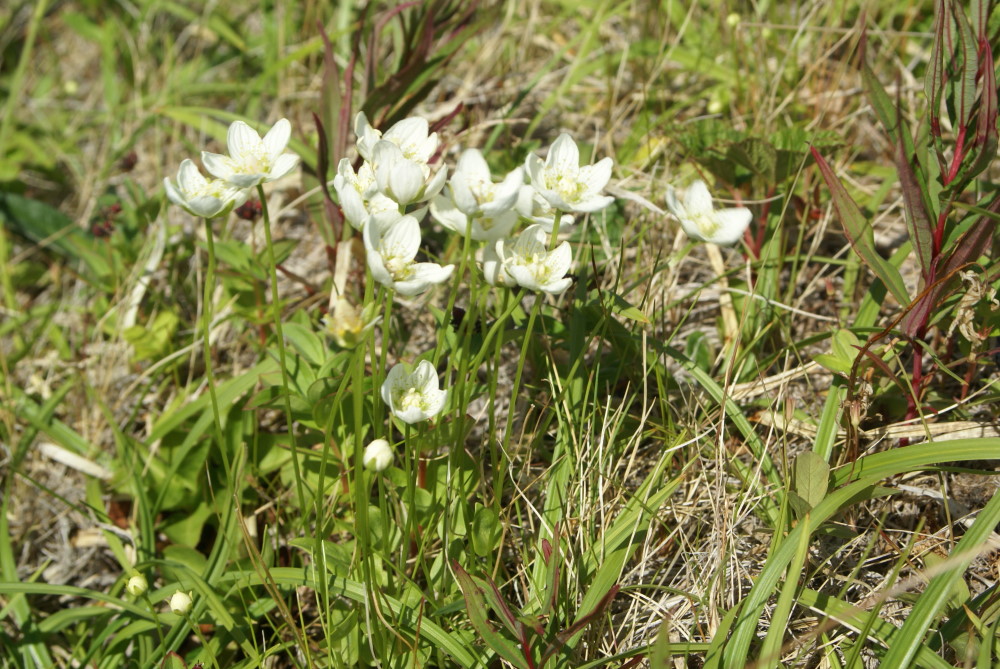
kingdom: Plantae
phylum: Tracheophyta
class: Magnoliopsida
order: Celastrales
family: Parnassiaceae
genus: Parnassia
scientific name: Parnassia palustris
